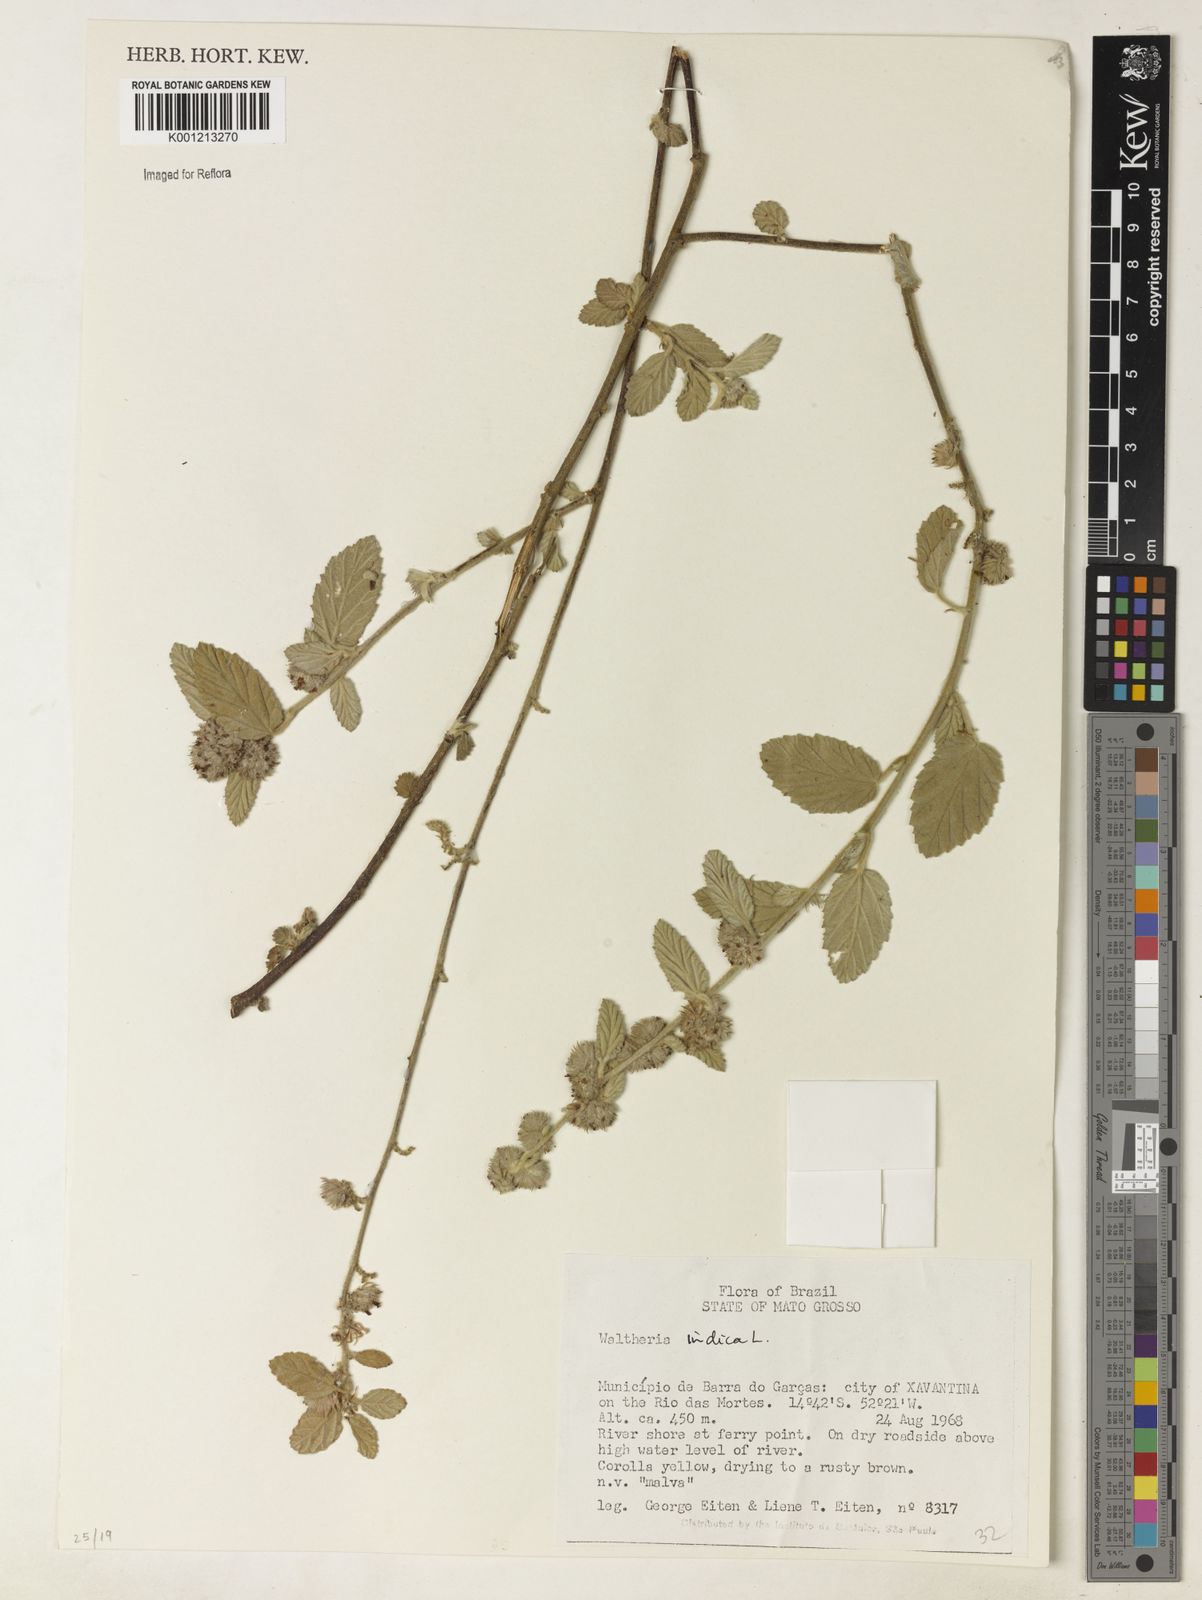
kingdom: Plantae
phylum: Tracheophyta
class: Magnoliopsida
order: Malvales
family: Malvaceae
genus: Waltheria
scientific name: Waltheria indica
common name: Leather-coat
